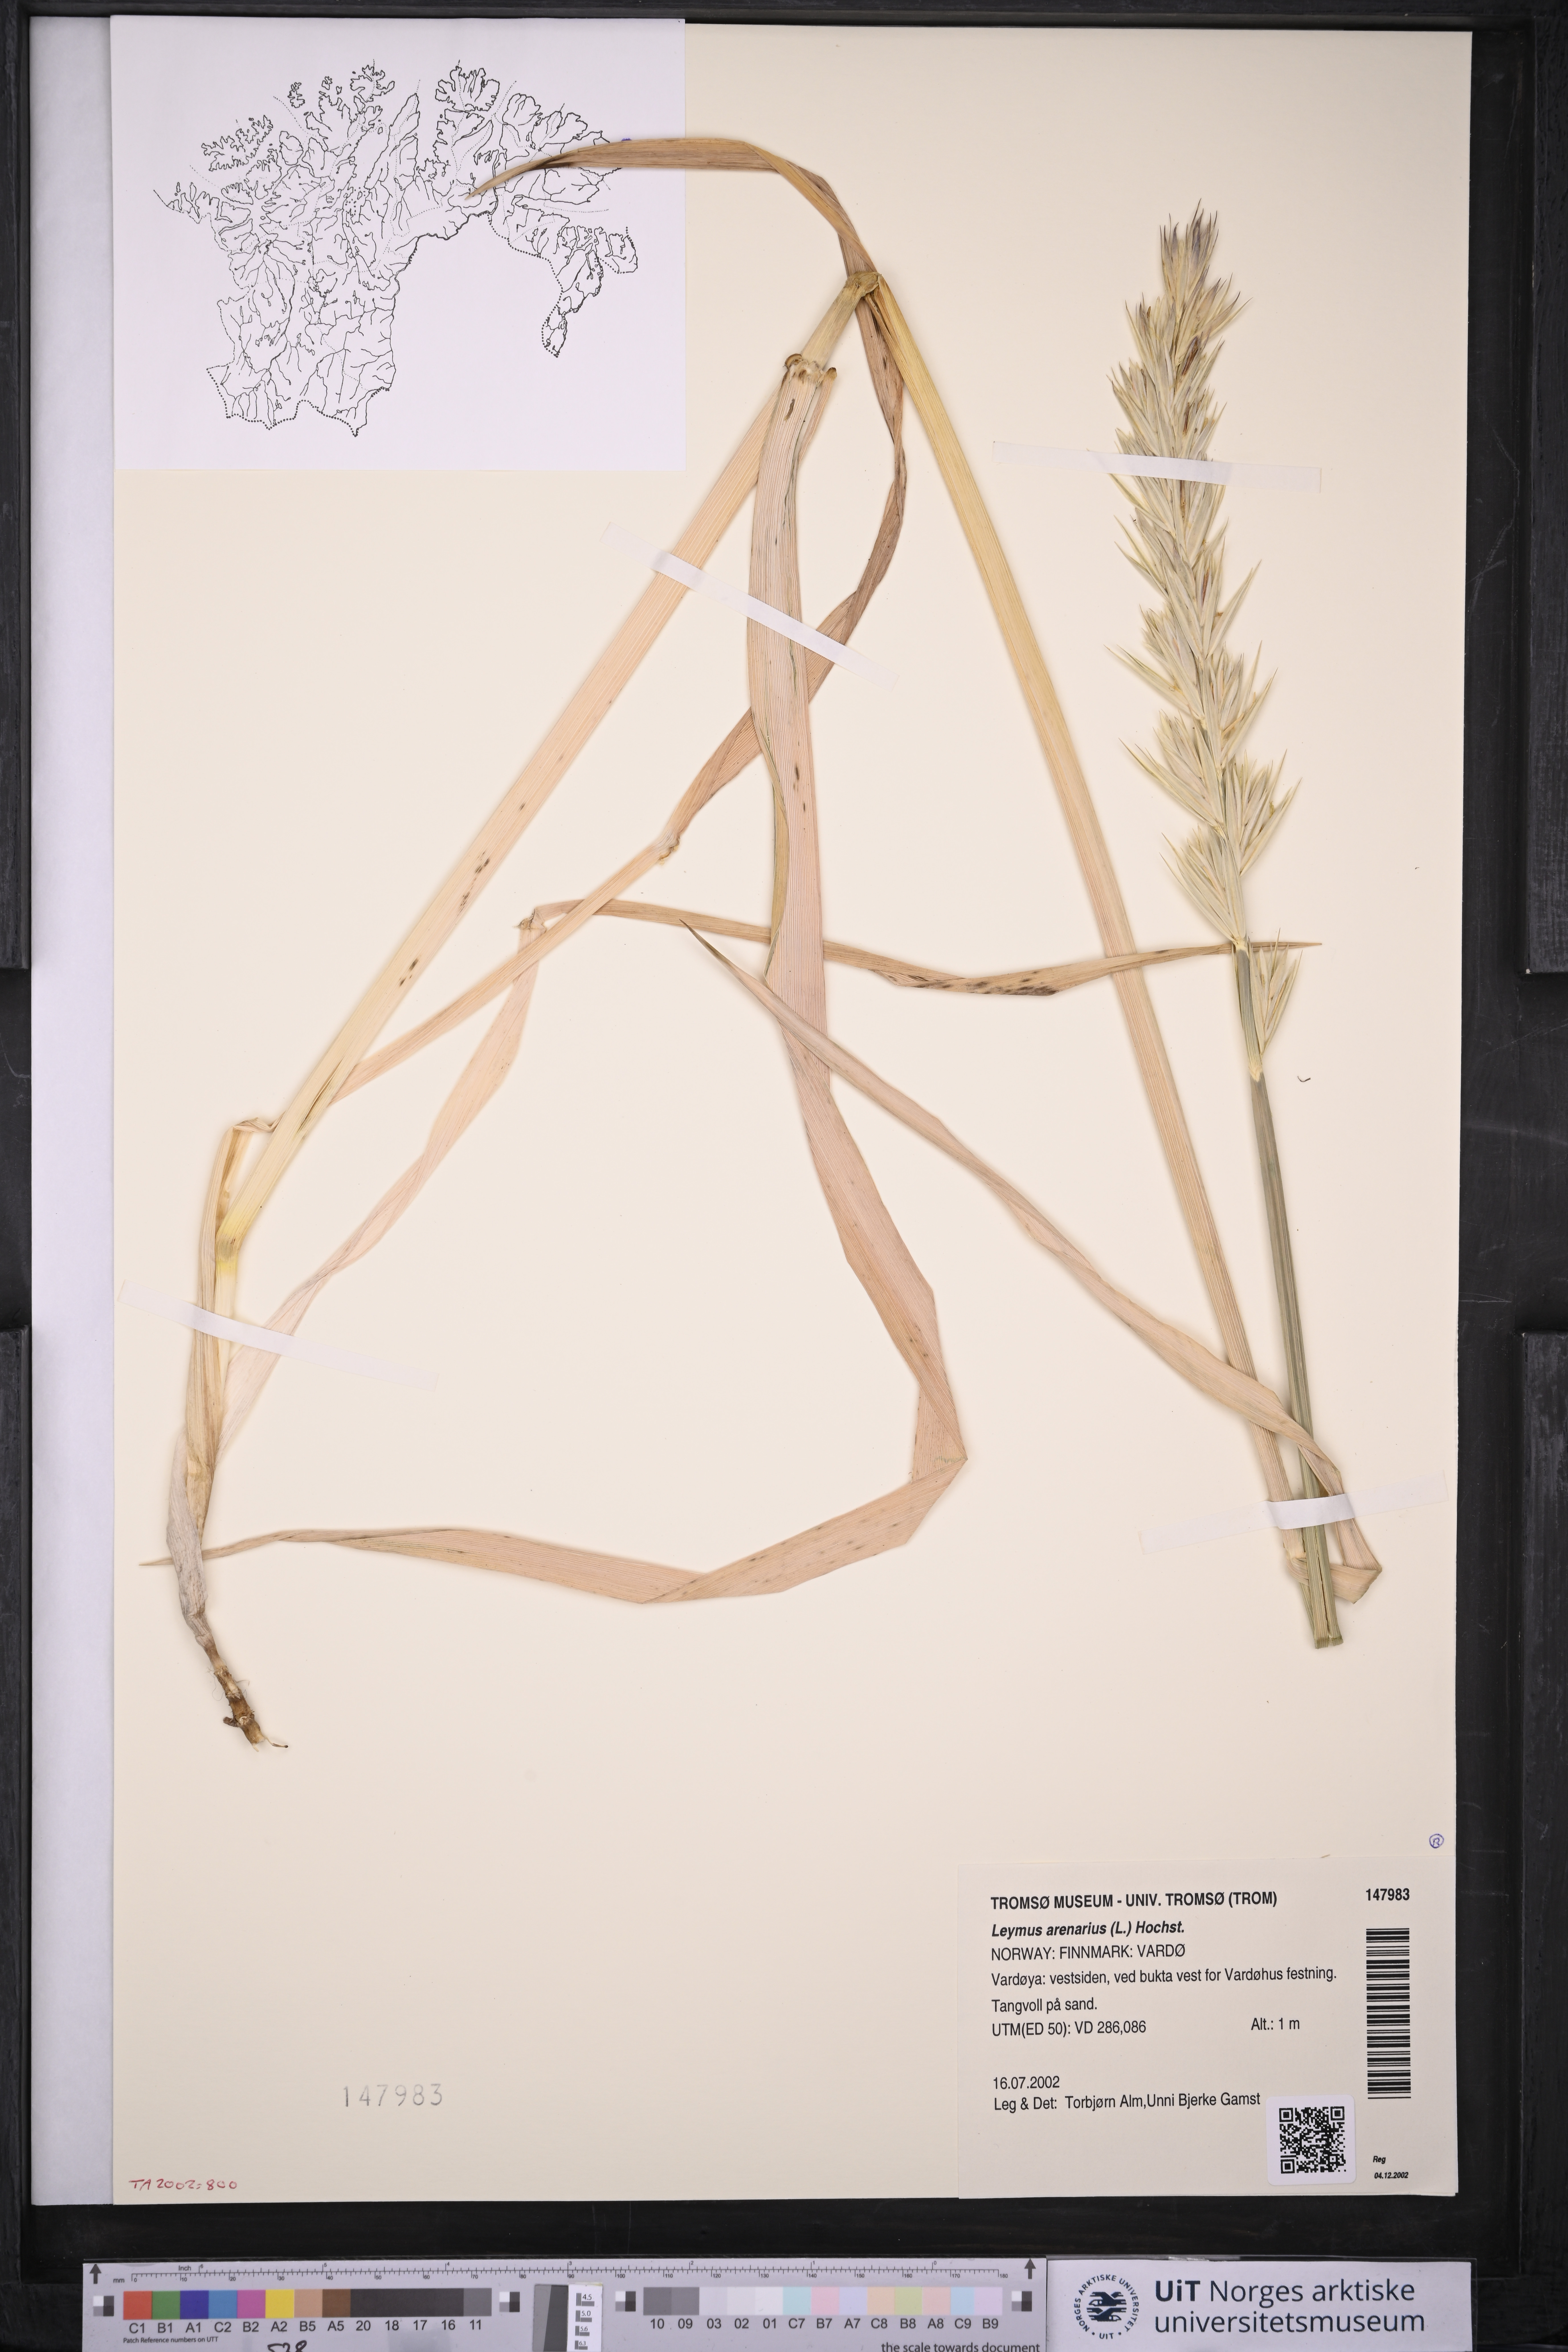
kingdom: Plantae
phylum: Tracheophyta
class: Liliopsida
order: Poales
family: Poaceae
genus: Leymus
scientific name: Leymus arenarius
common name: Lyme-grass
